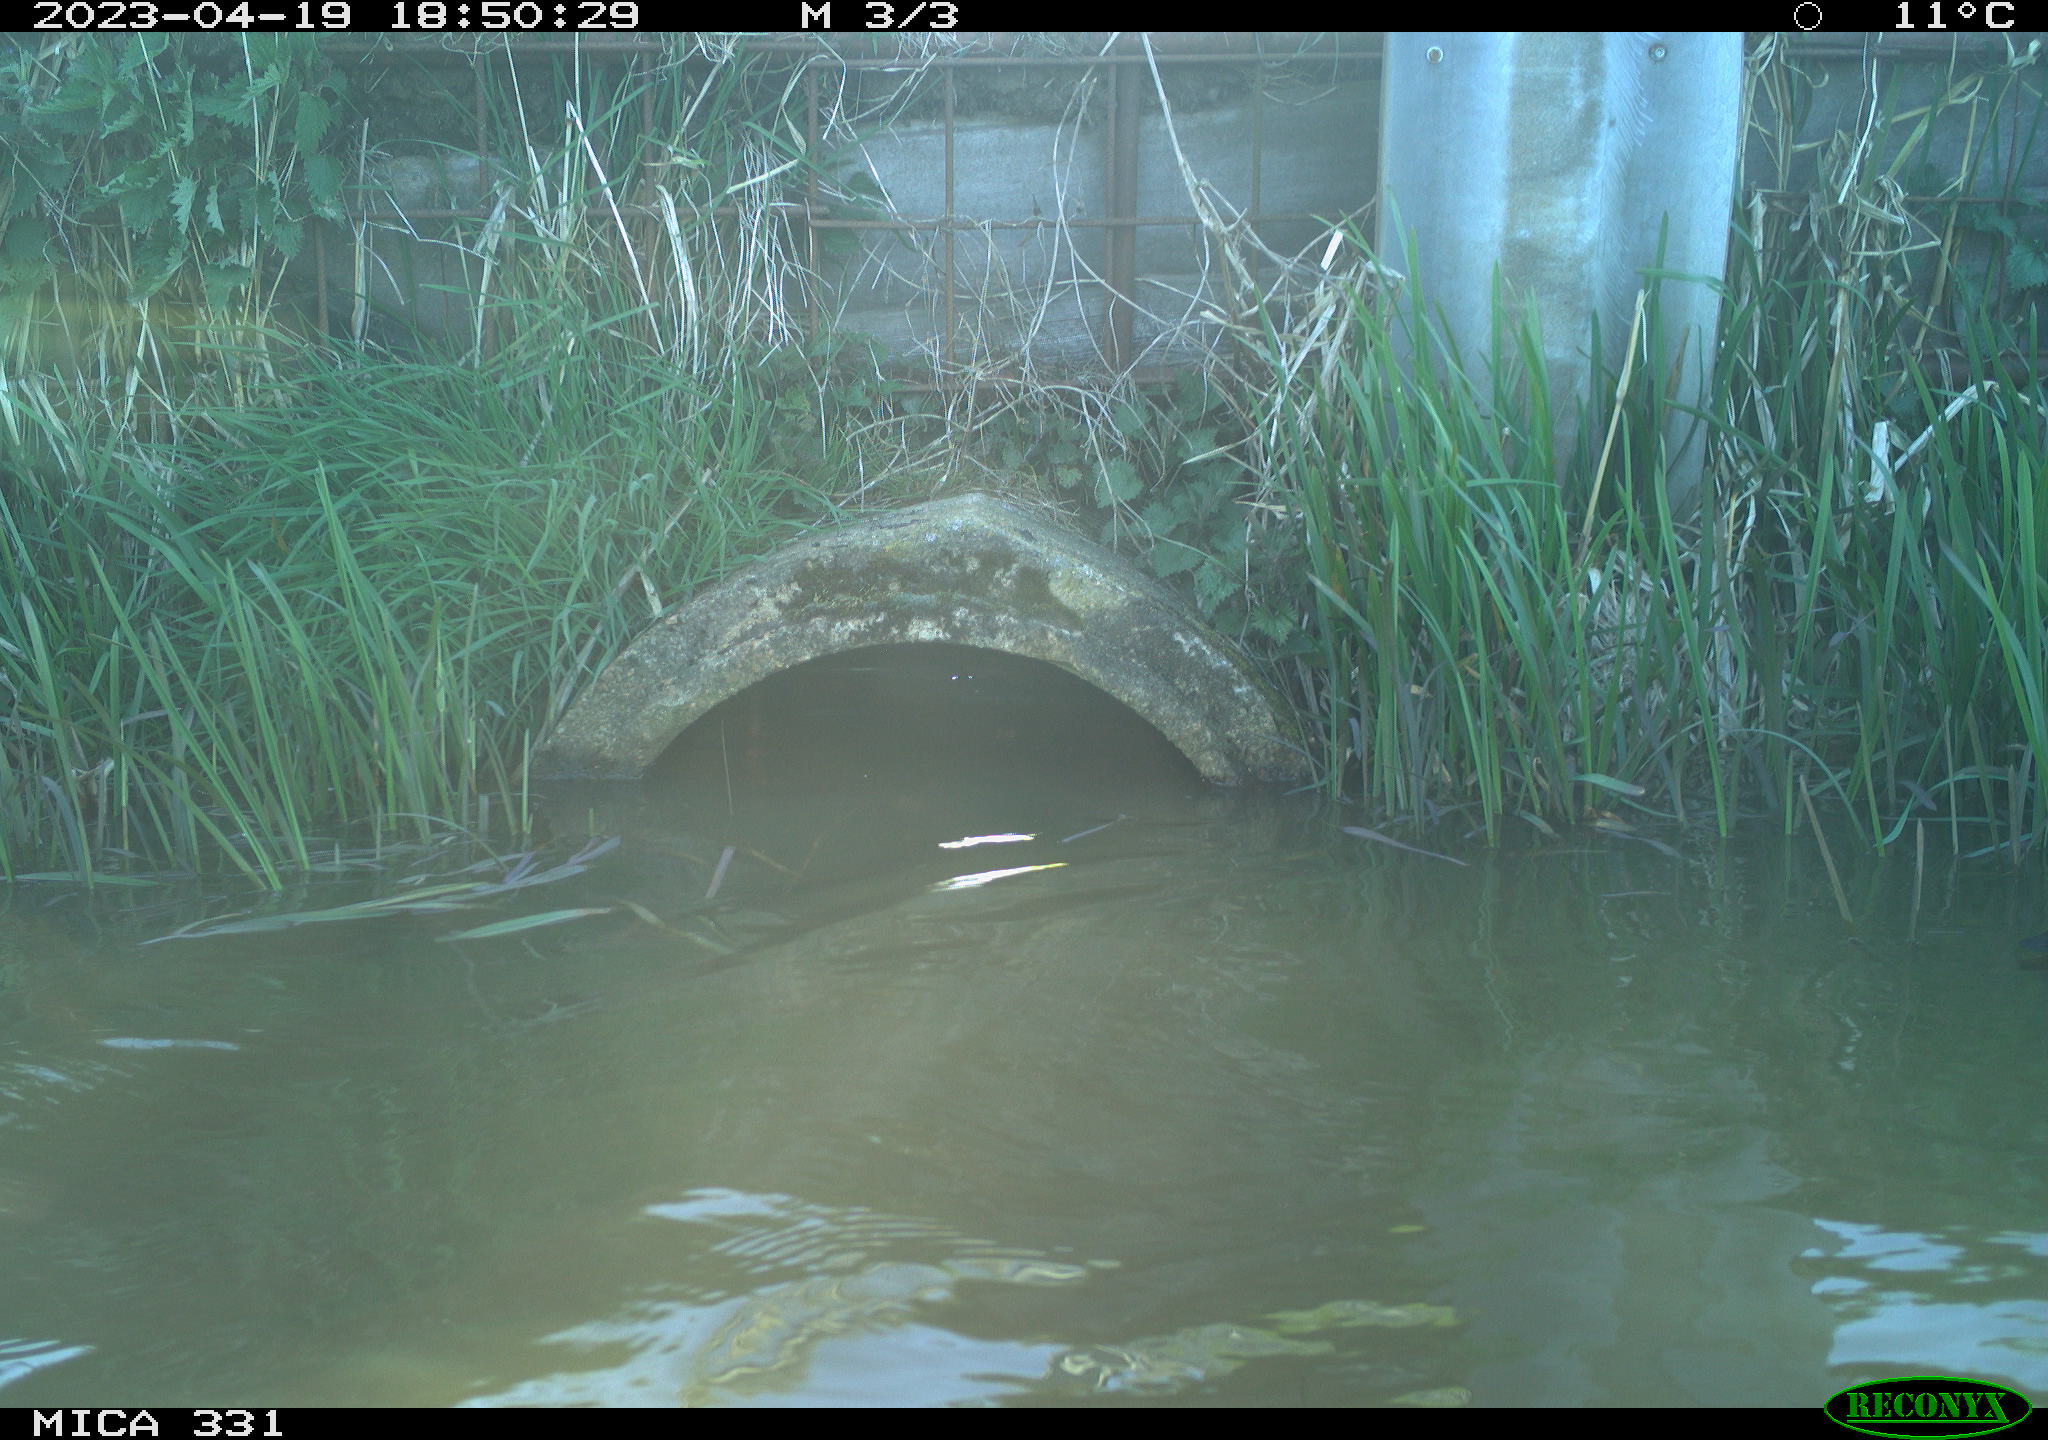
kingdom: Animalia
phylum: Chordata
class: Aves
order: Gruiformes
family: Rallidae
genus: Fulica
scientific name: Fulica atra
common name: Eurasian coot
